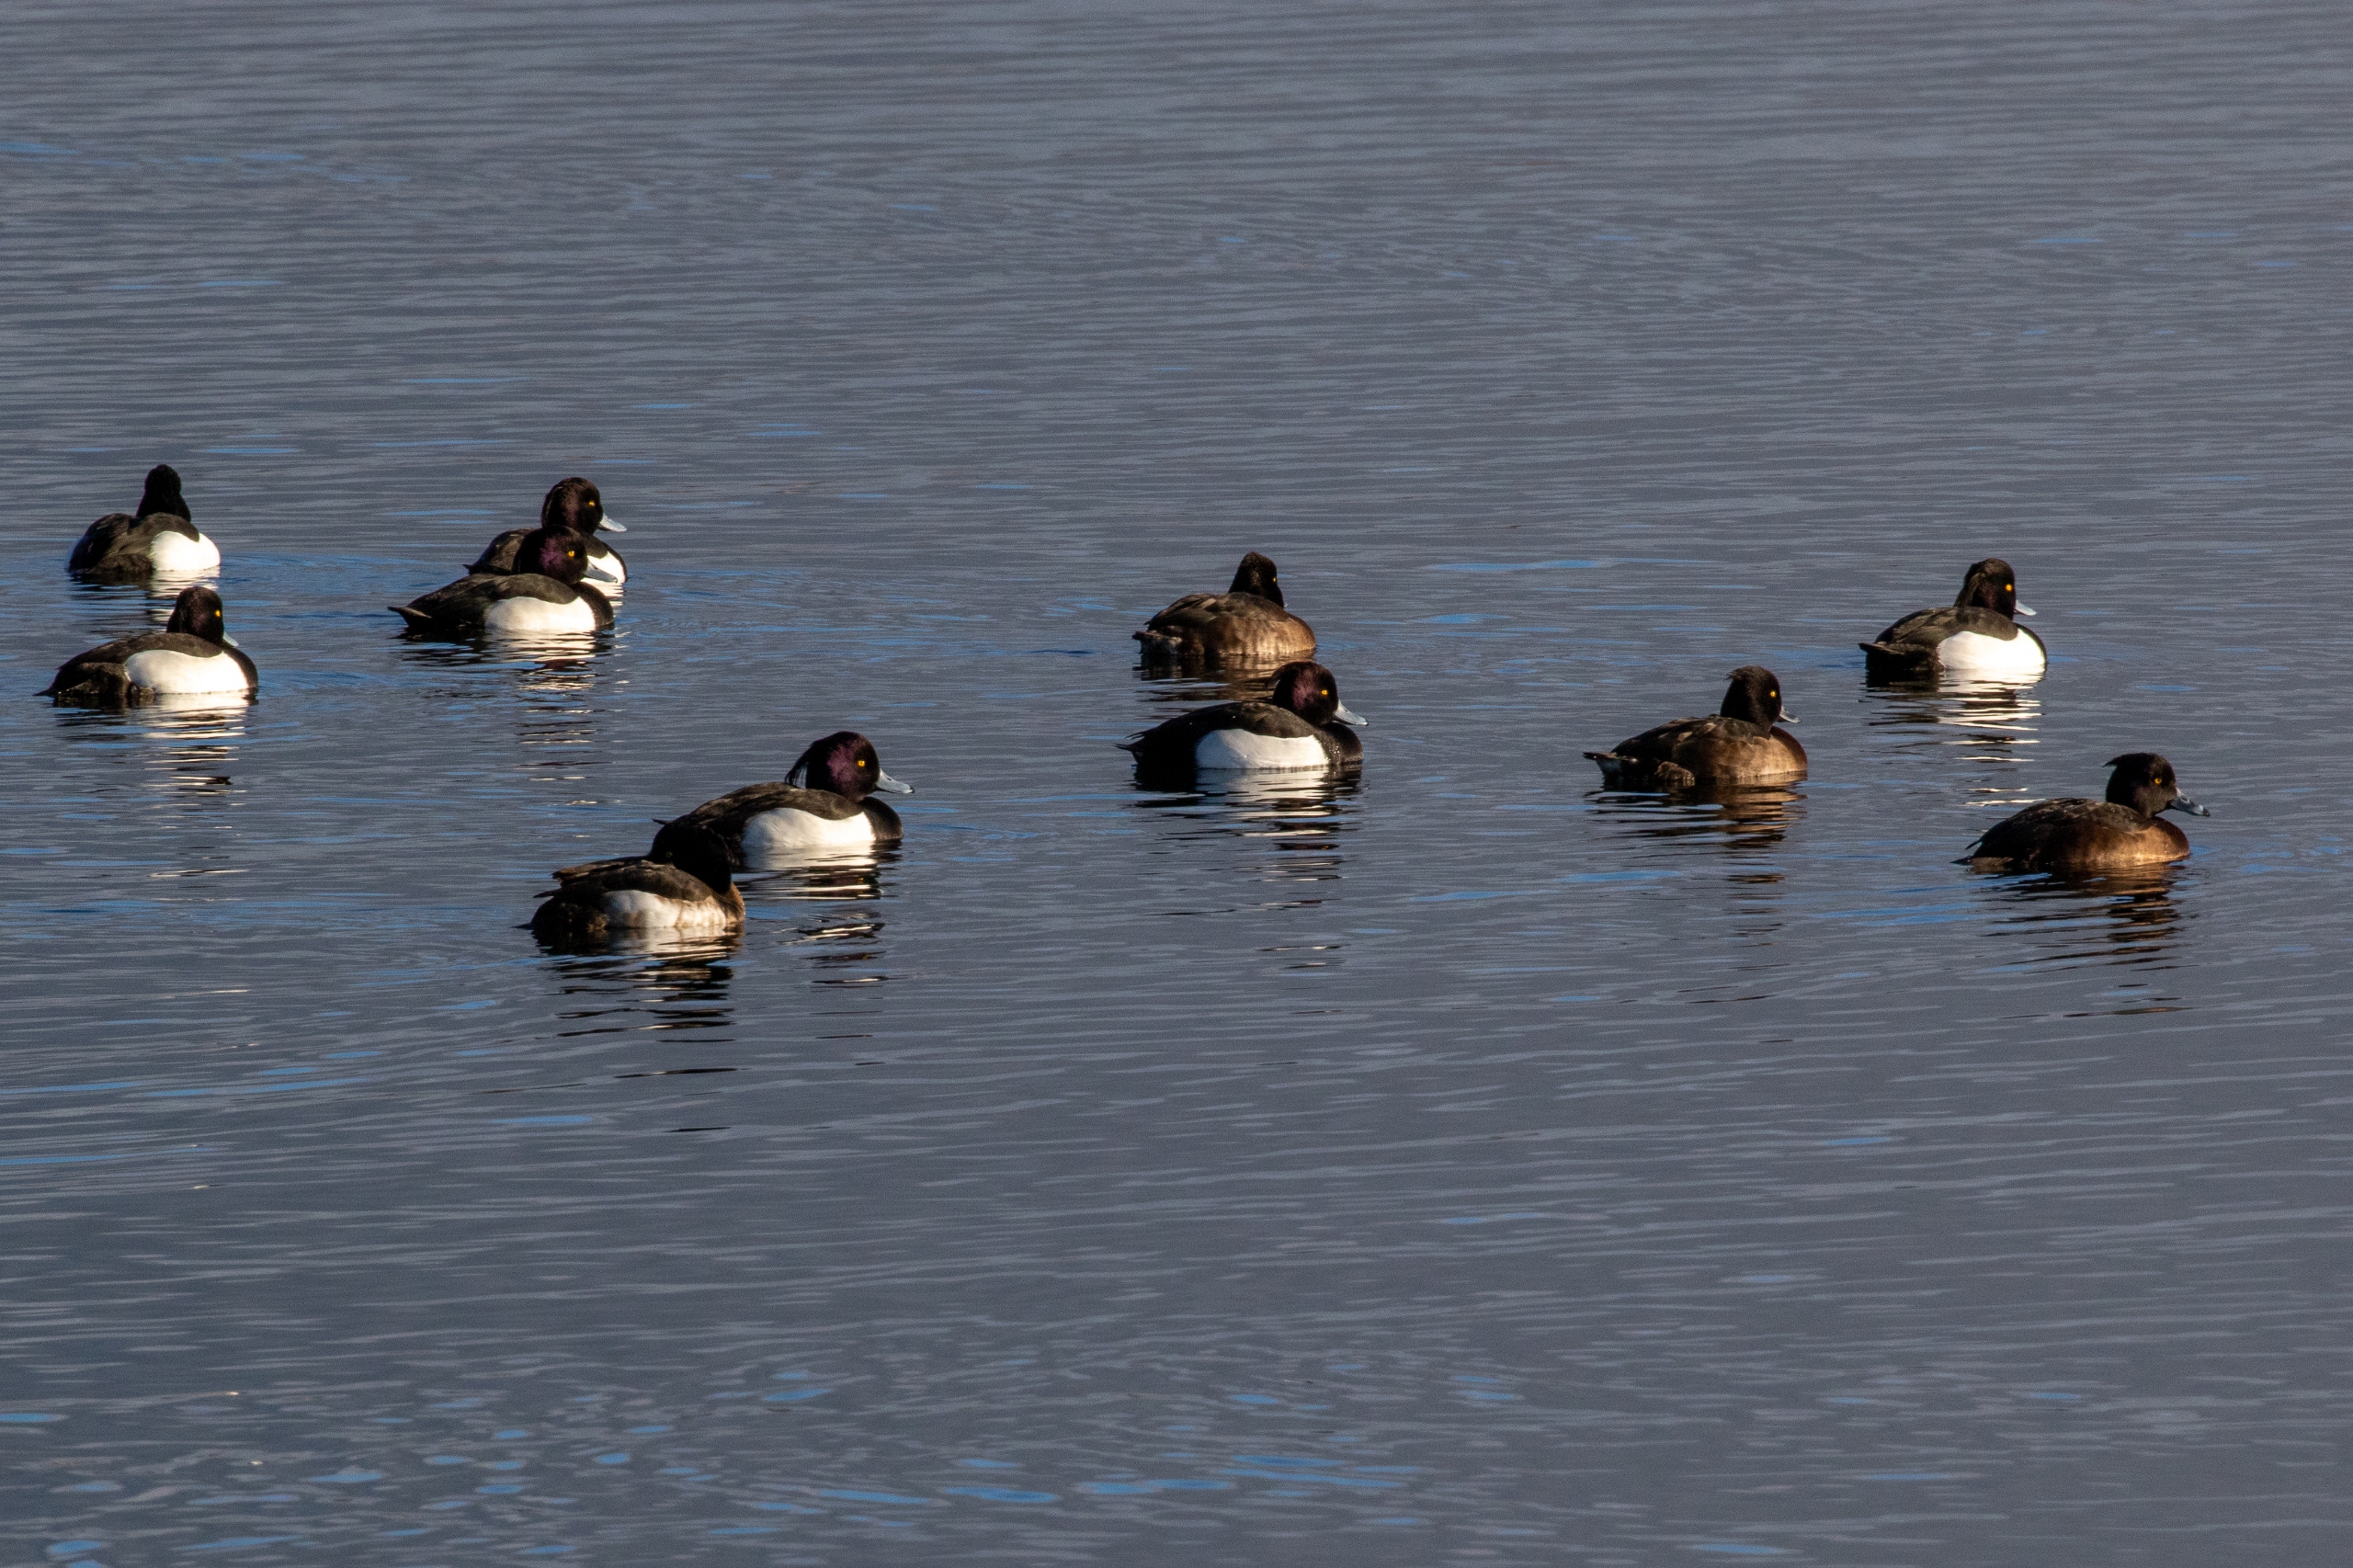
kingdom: Animalia
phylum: Chordata
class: Aves
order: Anseriformes
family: Anatidae
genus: Aythya
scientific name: Aythya fuligula
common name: Troldand
